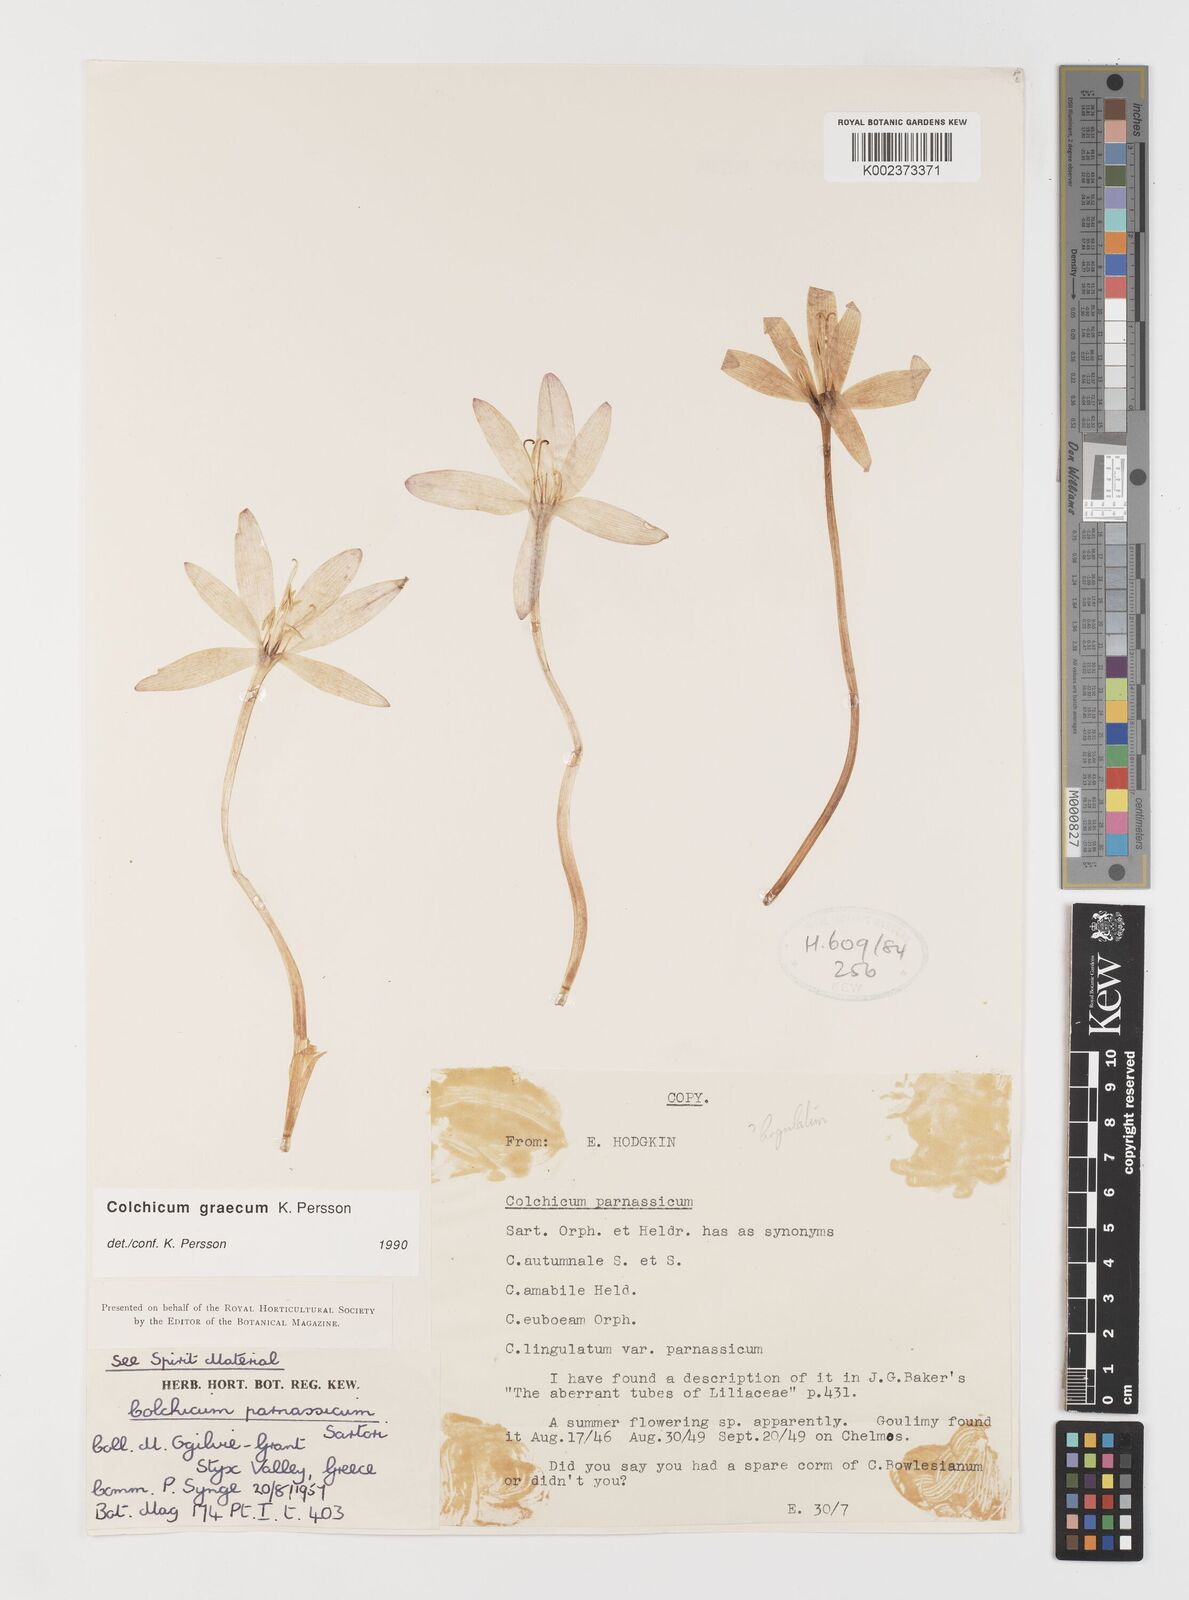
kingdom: Plantae
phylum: Tracheophyta
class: Liliopsida
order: Liliales
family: Colchicaceae
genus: Colchicum
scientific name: Colchicum graecum
